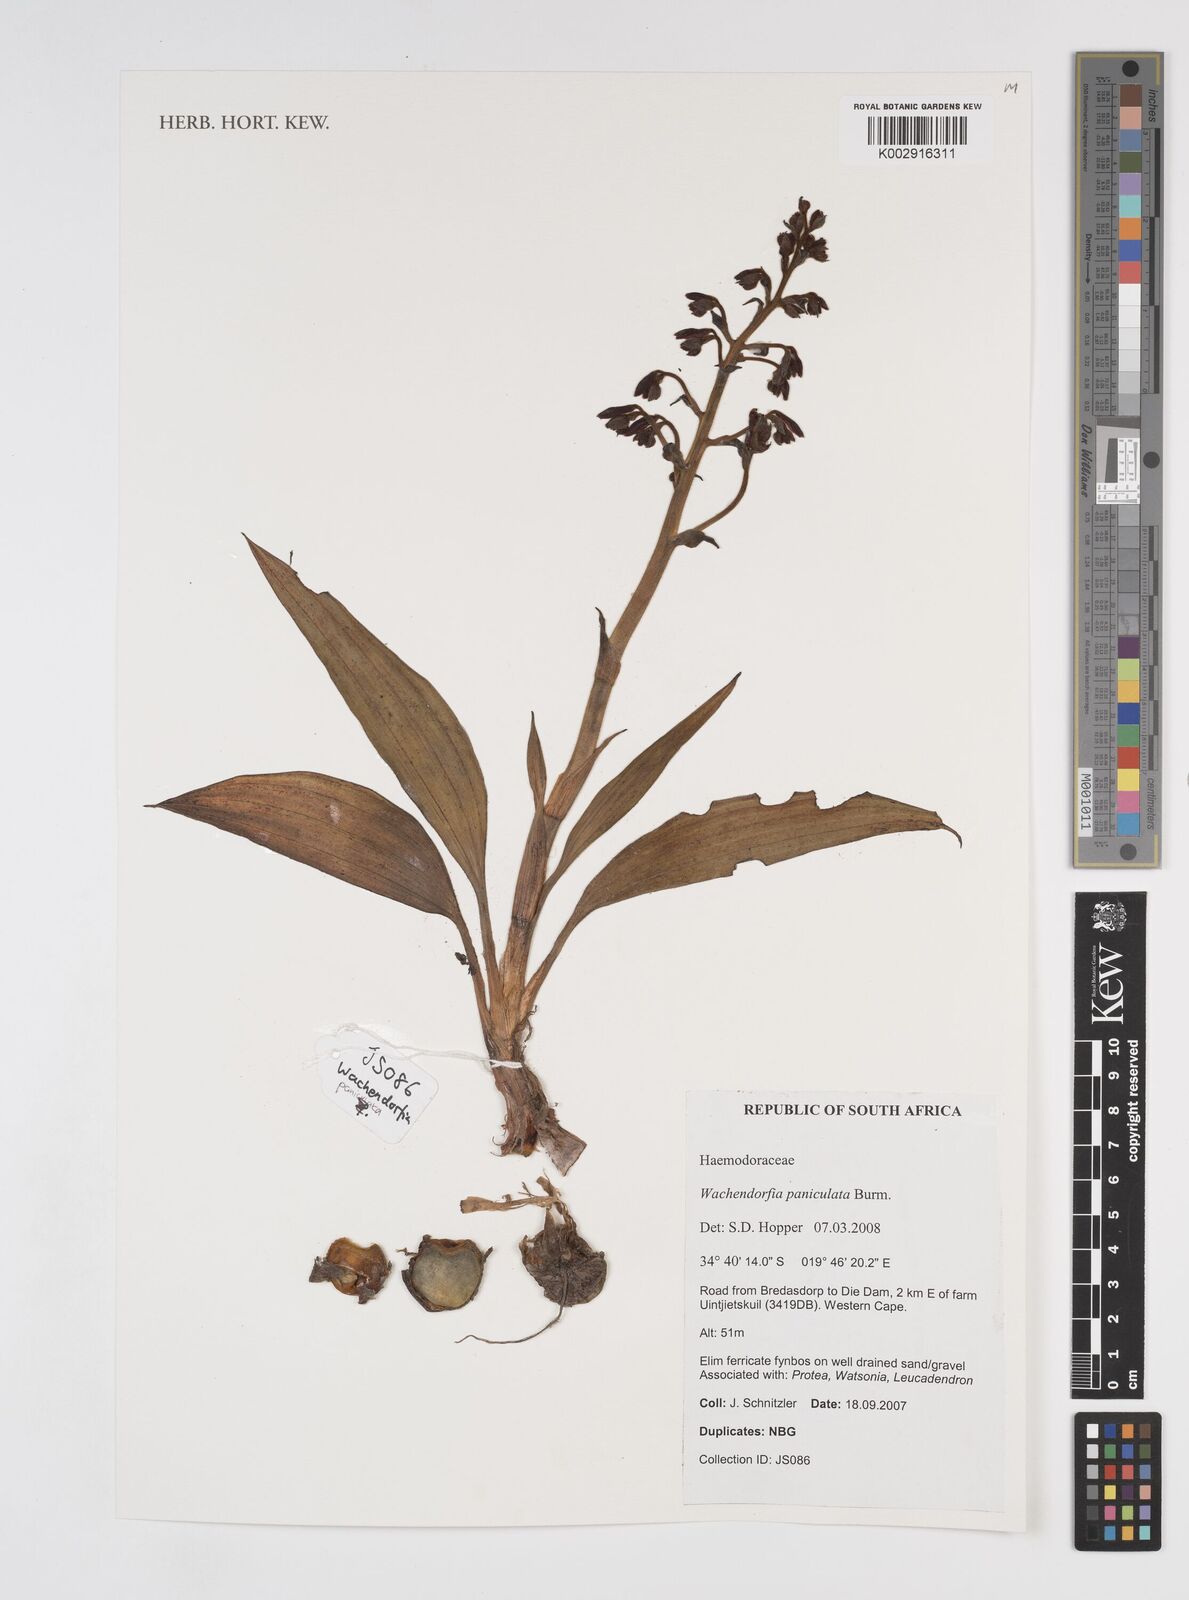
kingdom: Plantae
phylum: Tracheophyta
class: Liliopsida
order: Commelinales
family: Haemodoraceae
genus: Wachendorfia
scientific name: Wachendorfia paniculata
